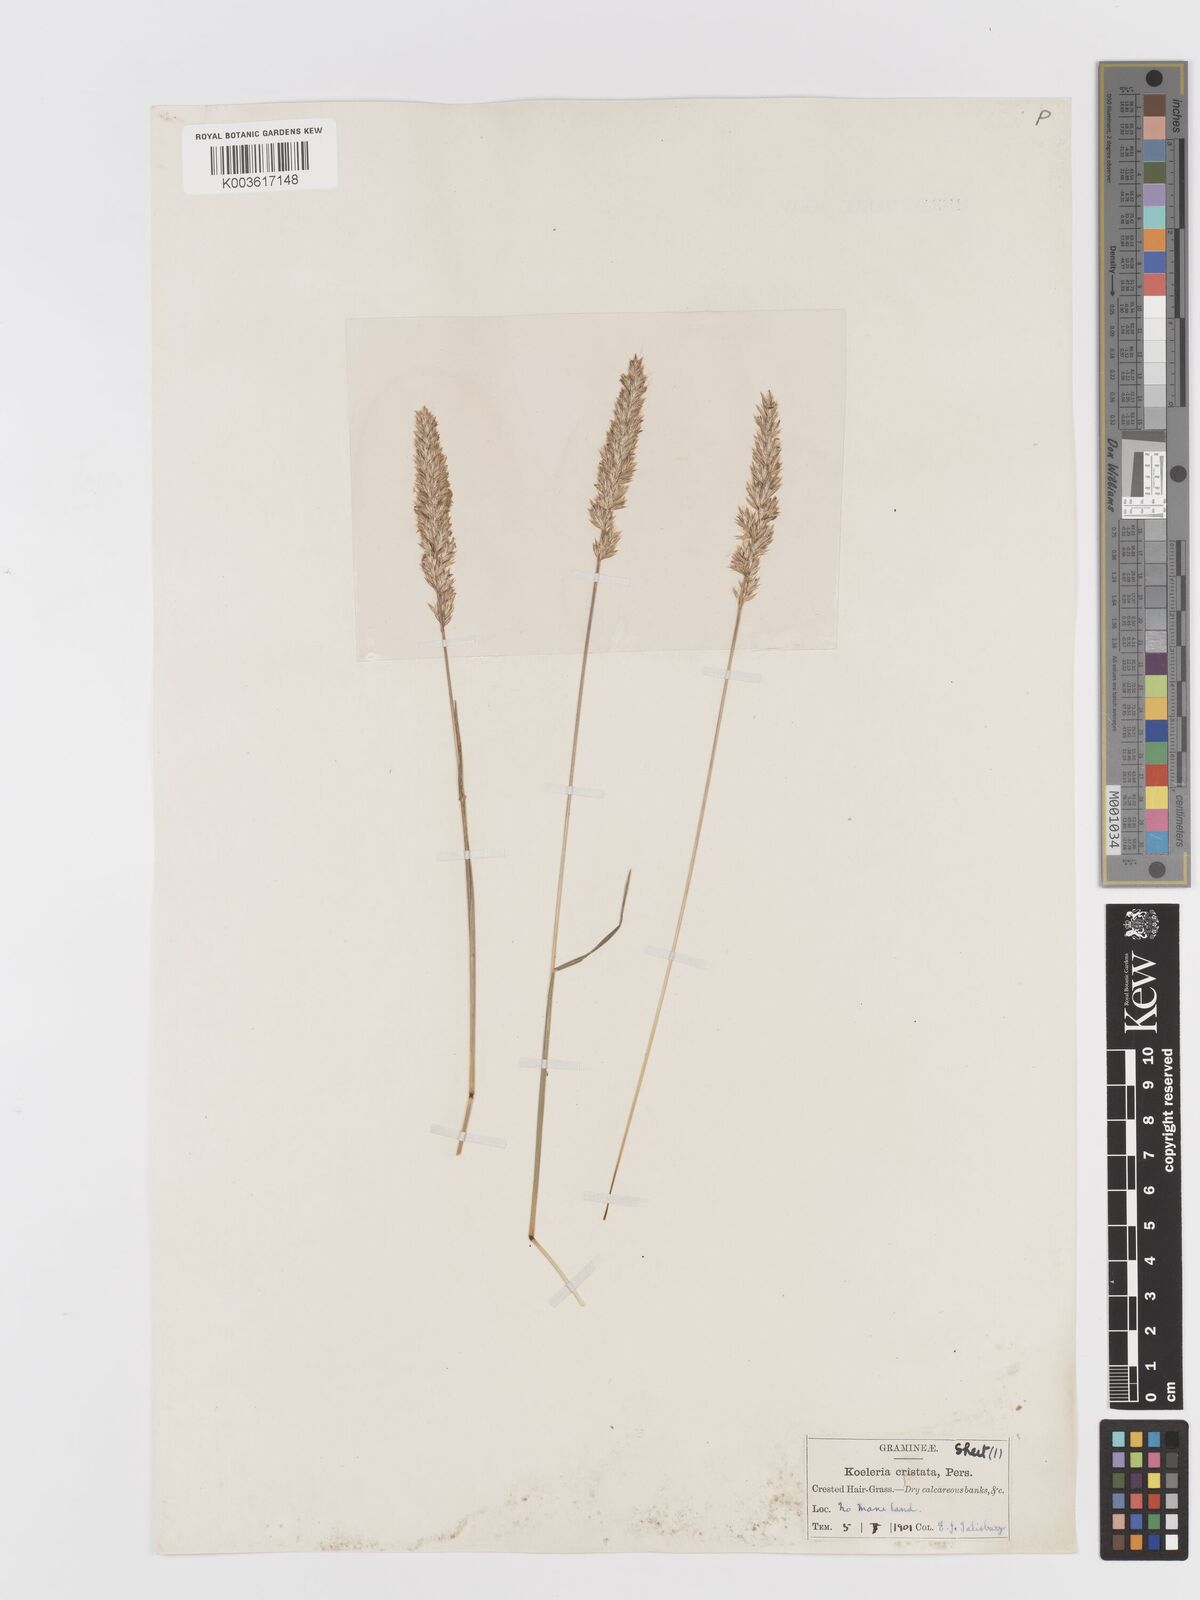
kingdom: Plantae
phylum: Tracheophyta
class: Liliopsida
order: Poales
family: Poaceae
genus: Koeleria
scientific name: Koeleria macrantha
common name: Crested hair-grass
